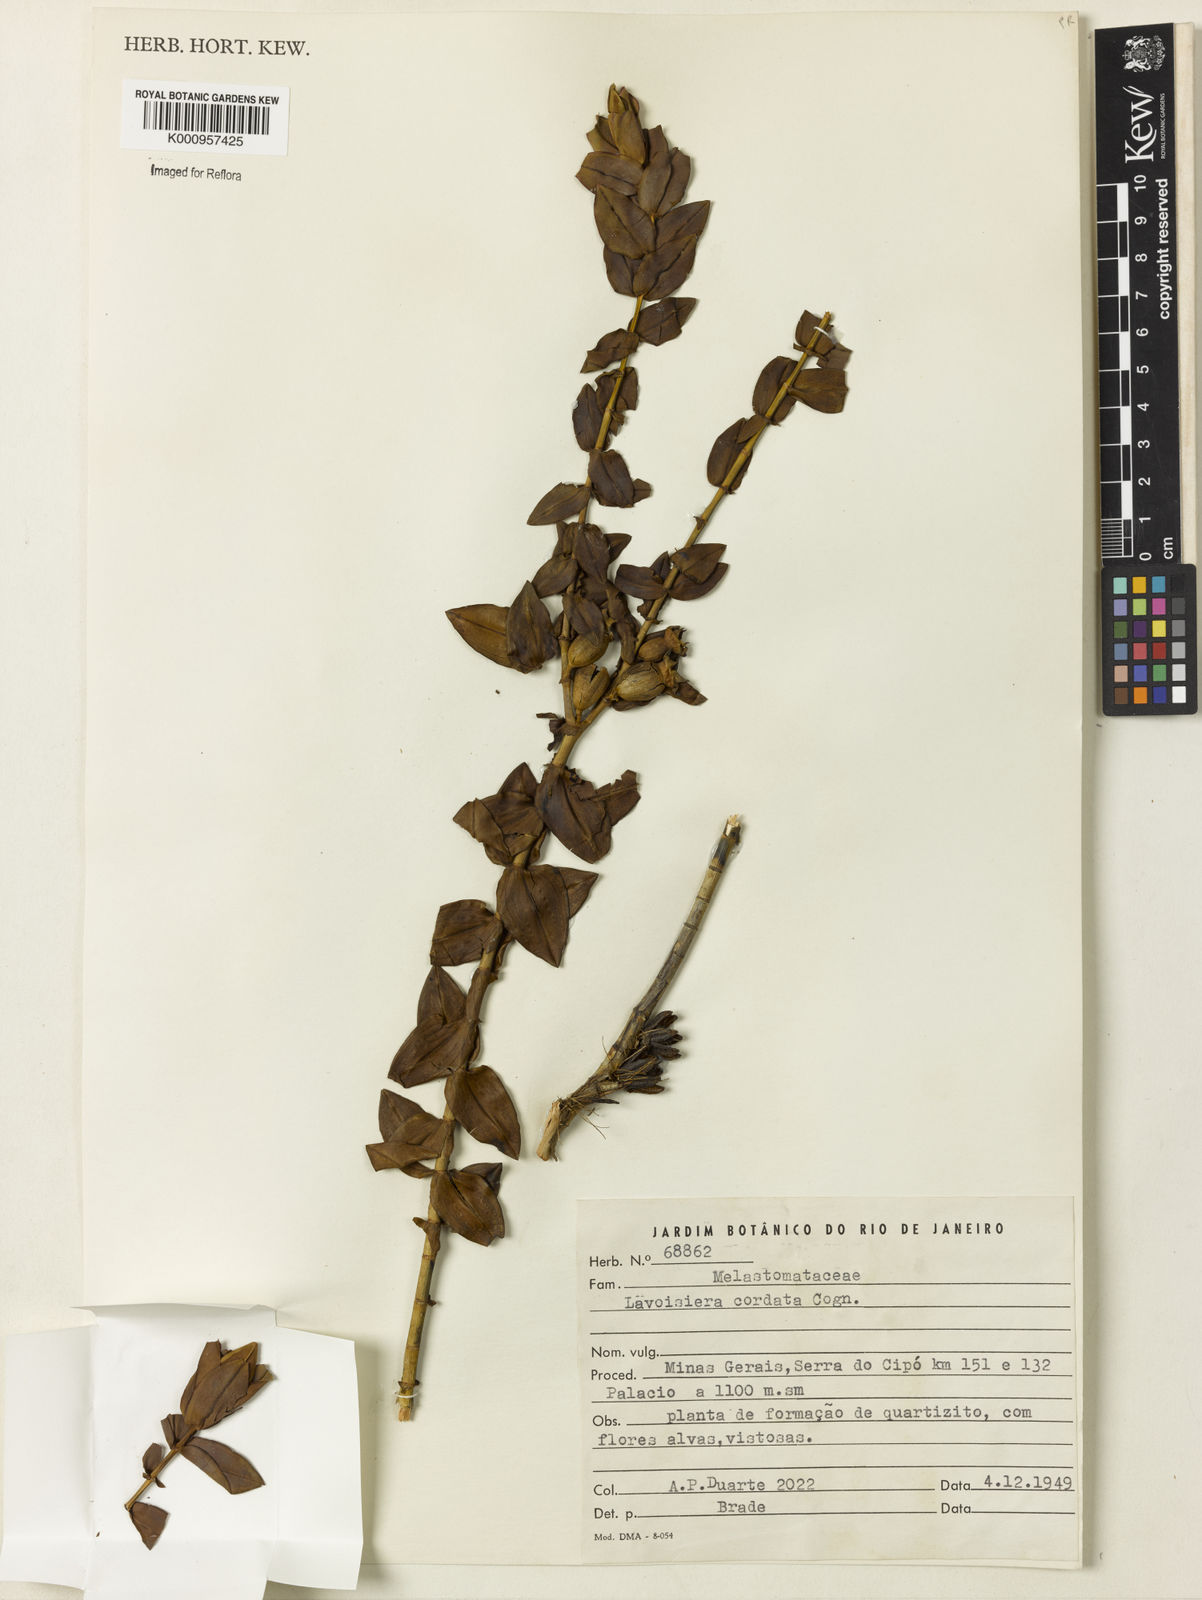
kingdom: Plantae
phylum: Tracheophyta
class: Magnoliopsida
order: Myrtales
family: Melastomataceae
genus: Microlicia
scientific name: Microlicia cordifolia
